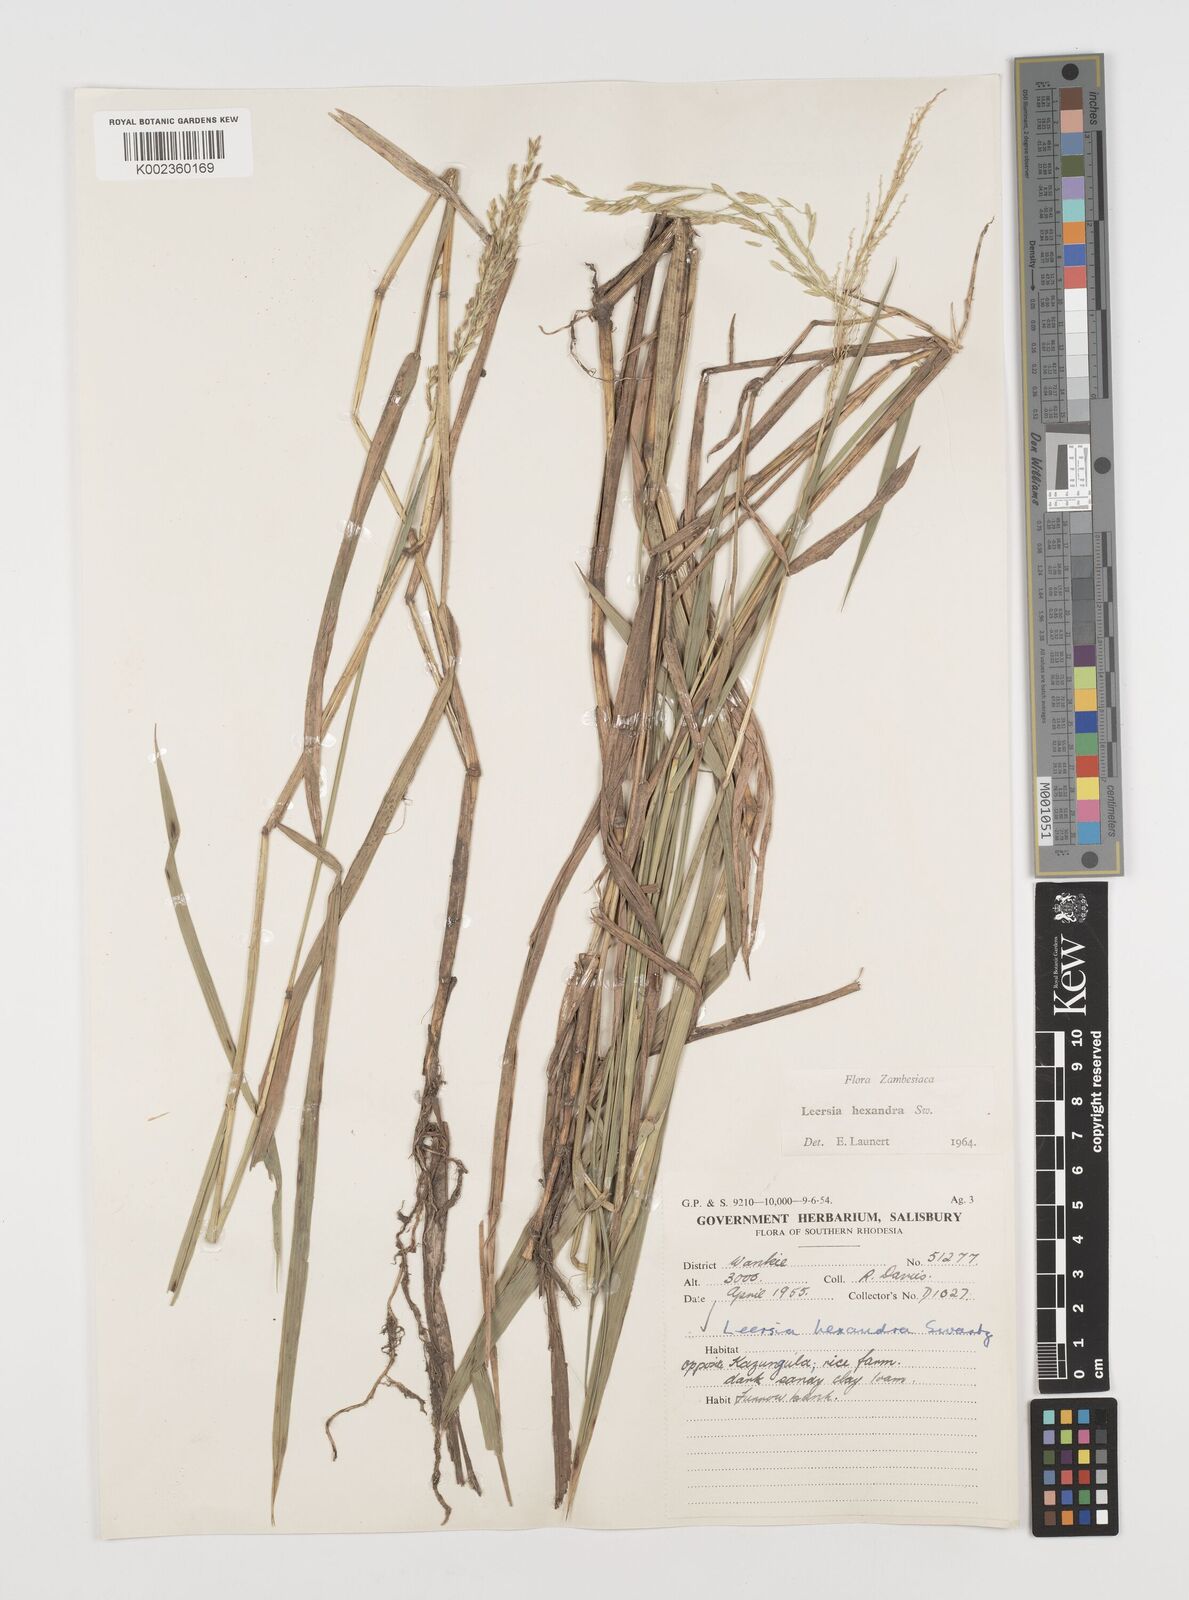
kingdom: Plantae
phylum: Tracheophyta
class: Liliopsida
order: Poales
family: Poaceae
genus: Leersia
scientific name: Leersia hexandra
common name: Southern cut grass
